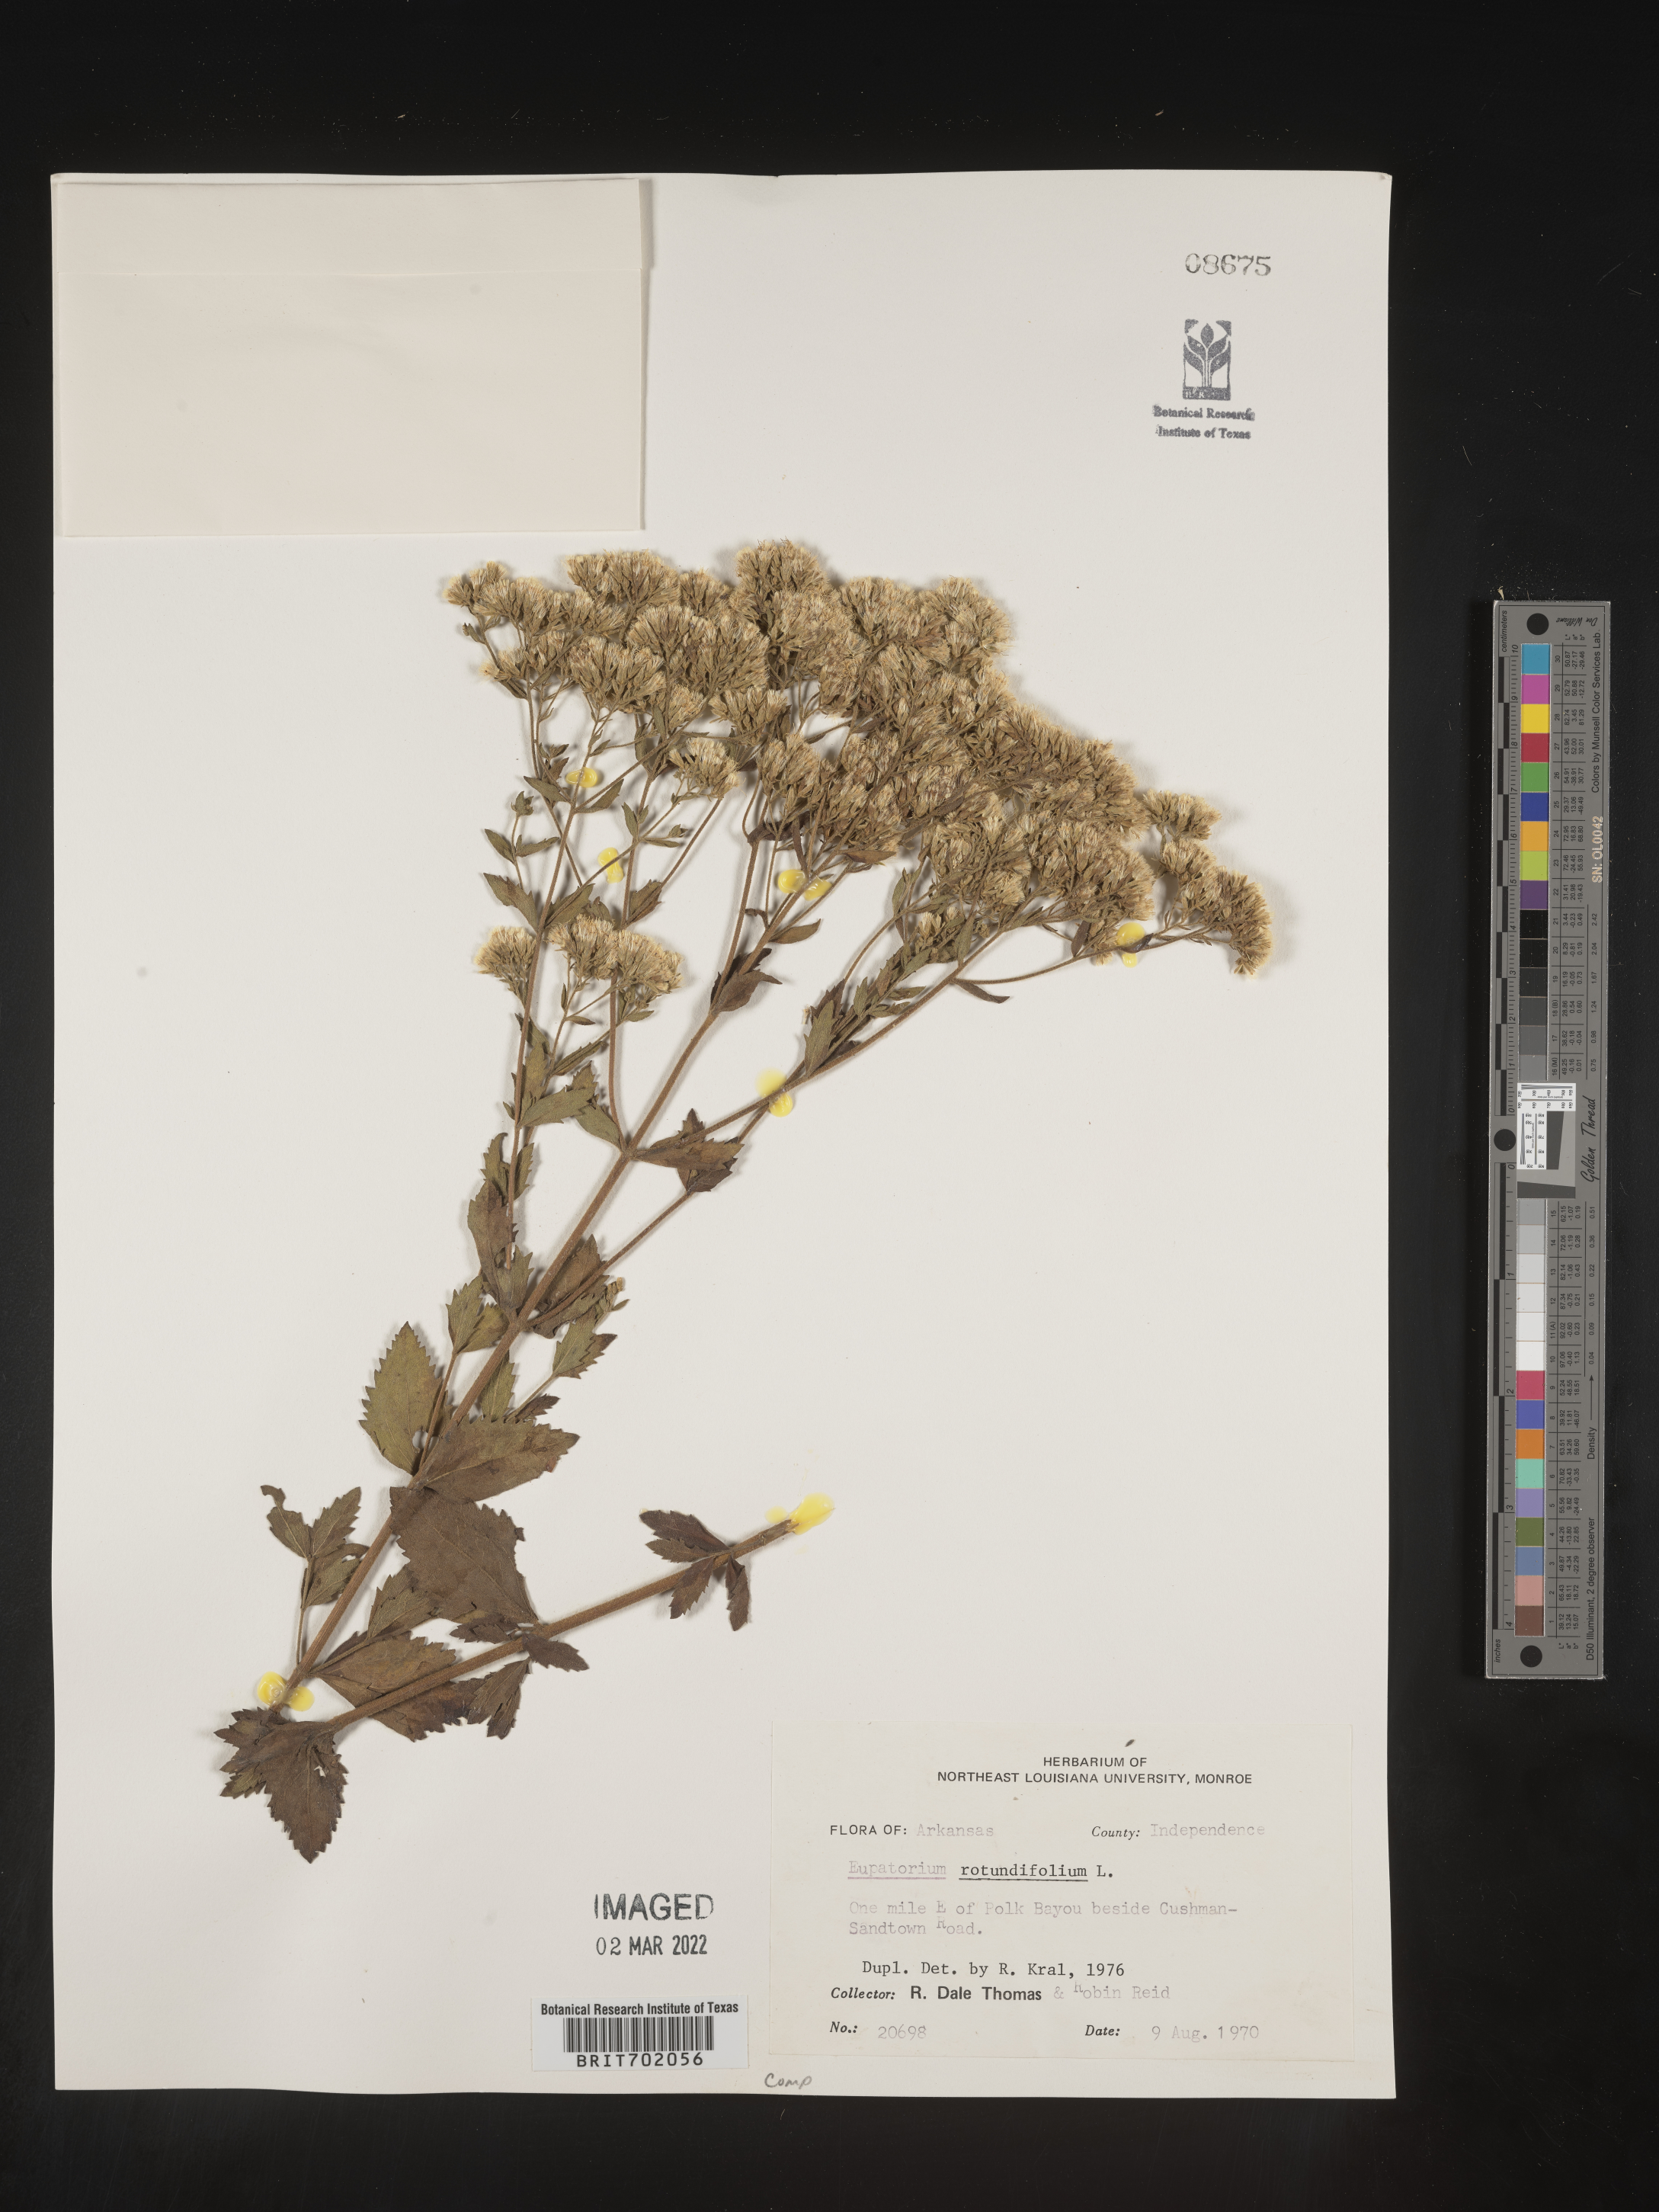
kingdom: Plantae
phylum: Tracheophyta
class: Magnoliopsida
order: Asterales
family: Asteraceae
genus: Eupatorium
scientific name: Eupatorium rotundifolium
